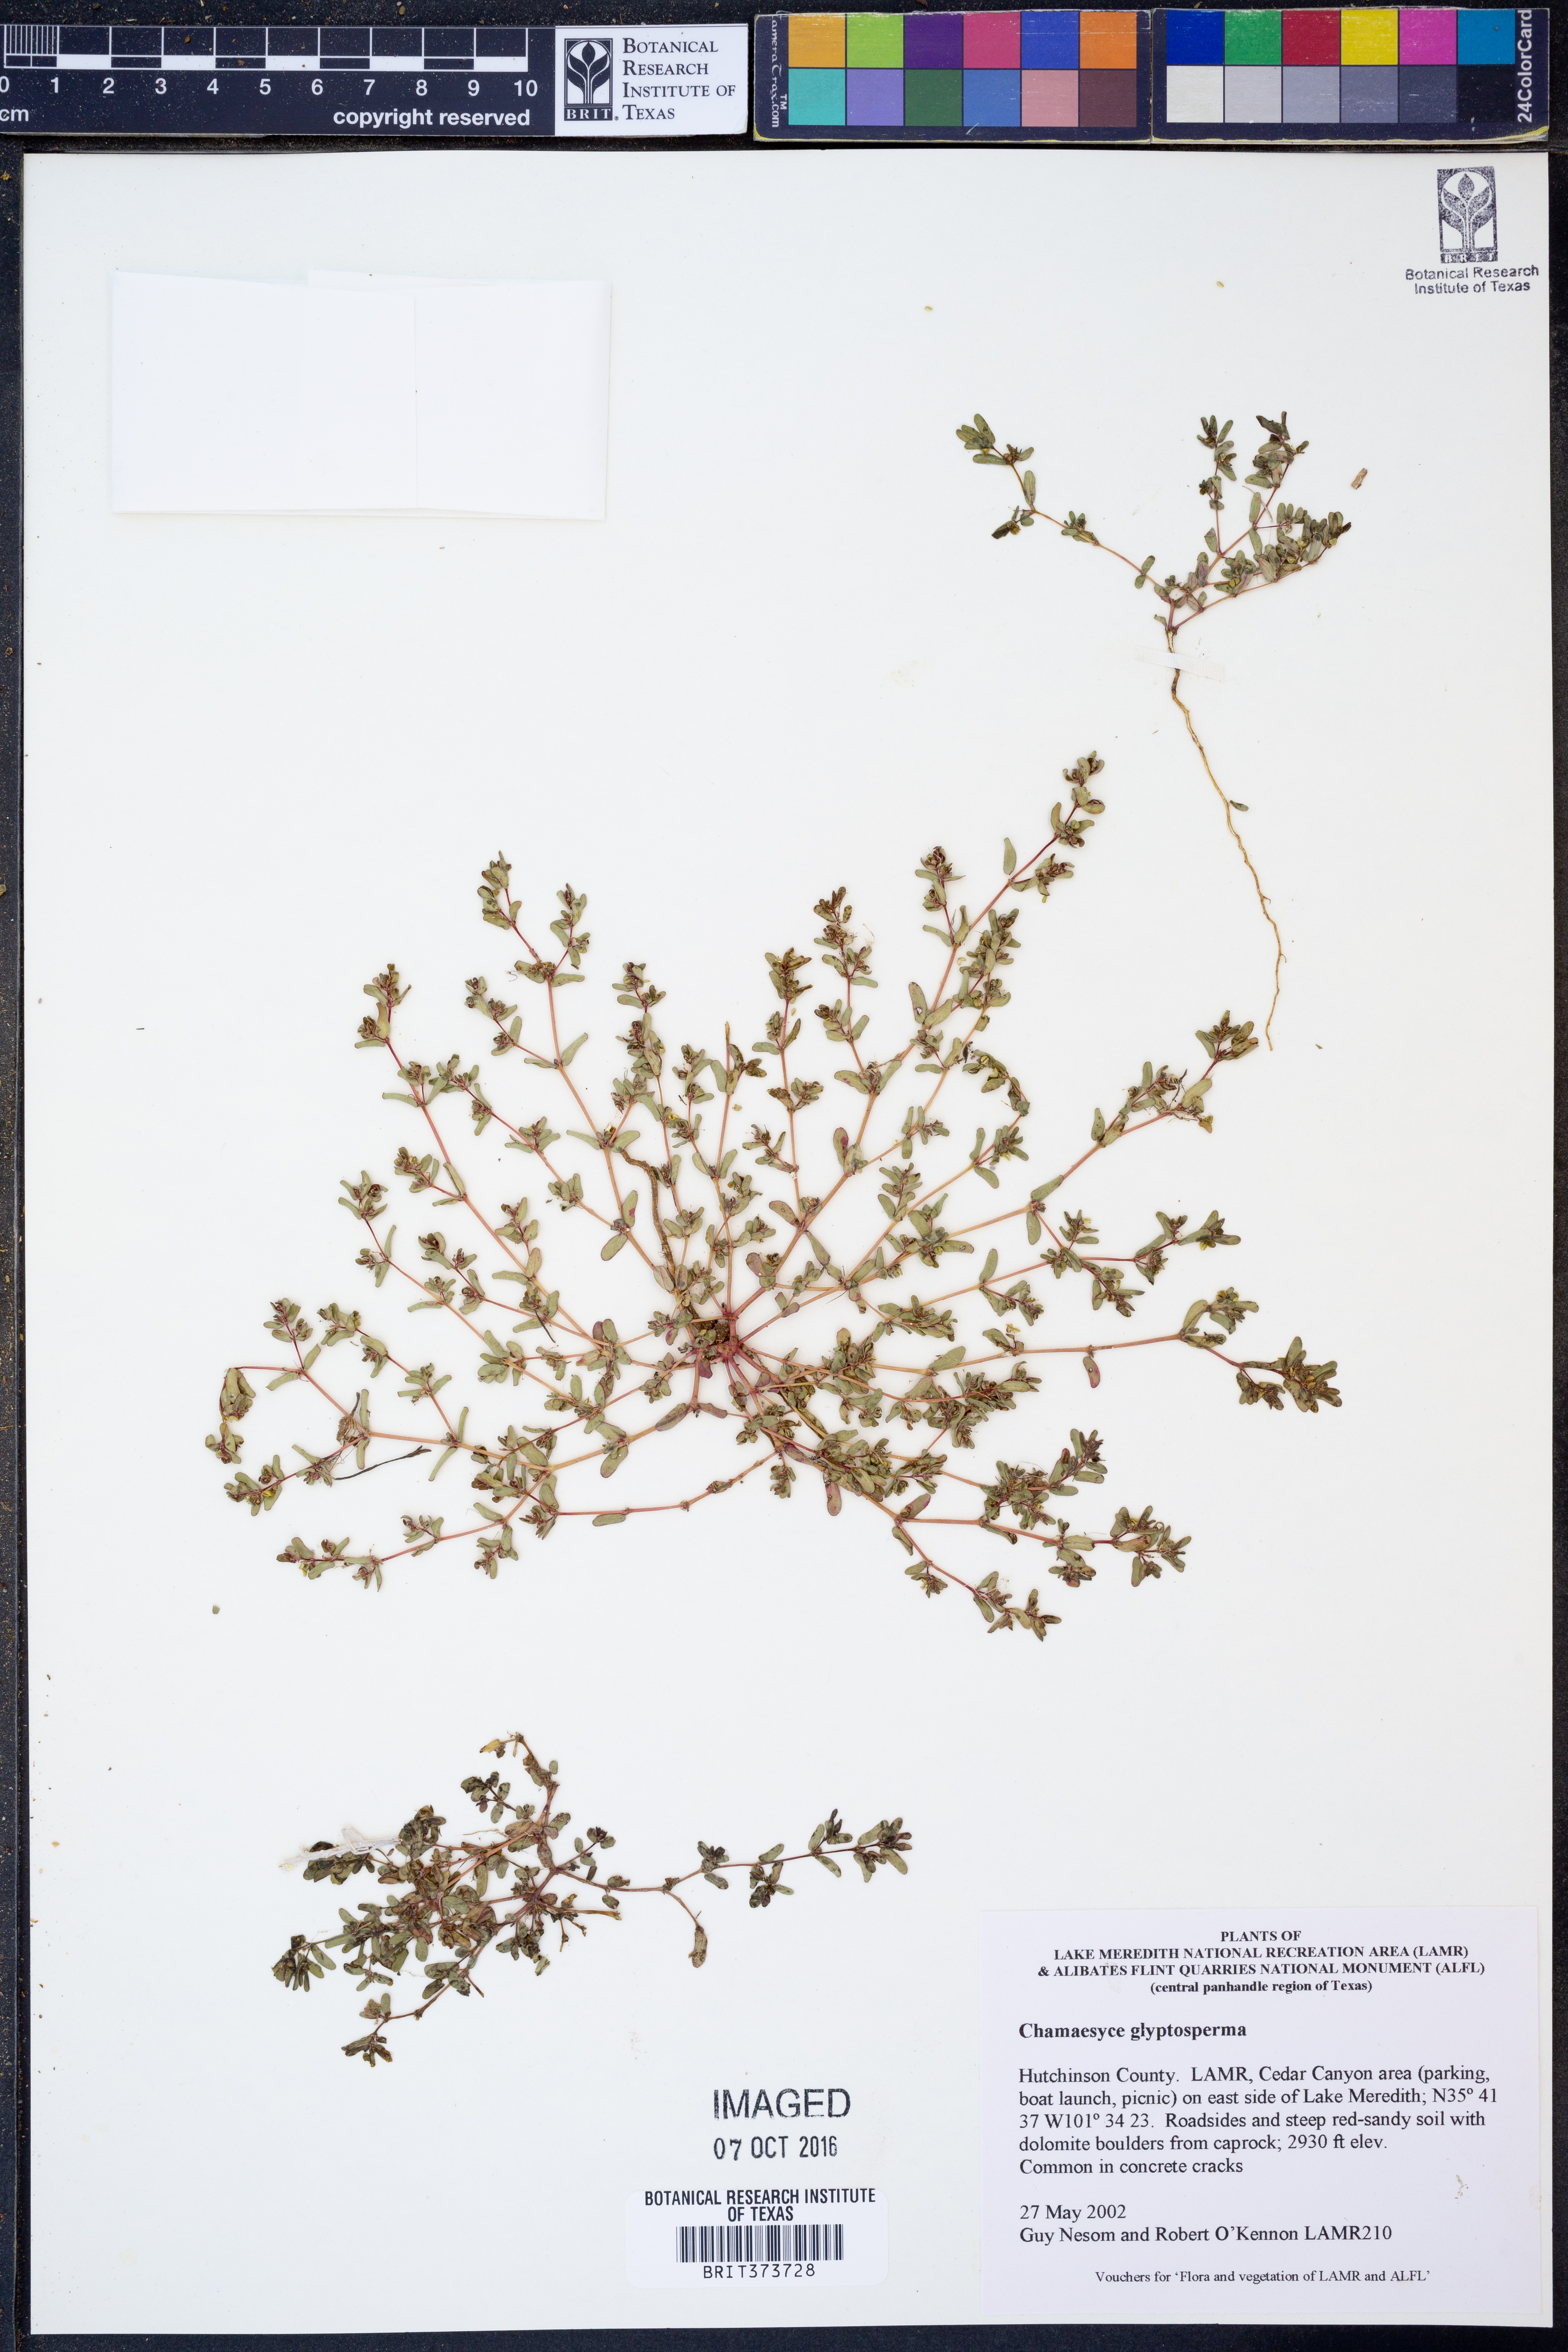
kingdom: Plantae
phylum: Tracheophyta
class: Magnoliopsida
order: Malpighiales
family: Euphorbiaceae
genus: Euphorbia
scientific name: Euphorbia glyptosperma
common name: Corrugate-seeded spurge
